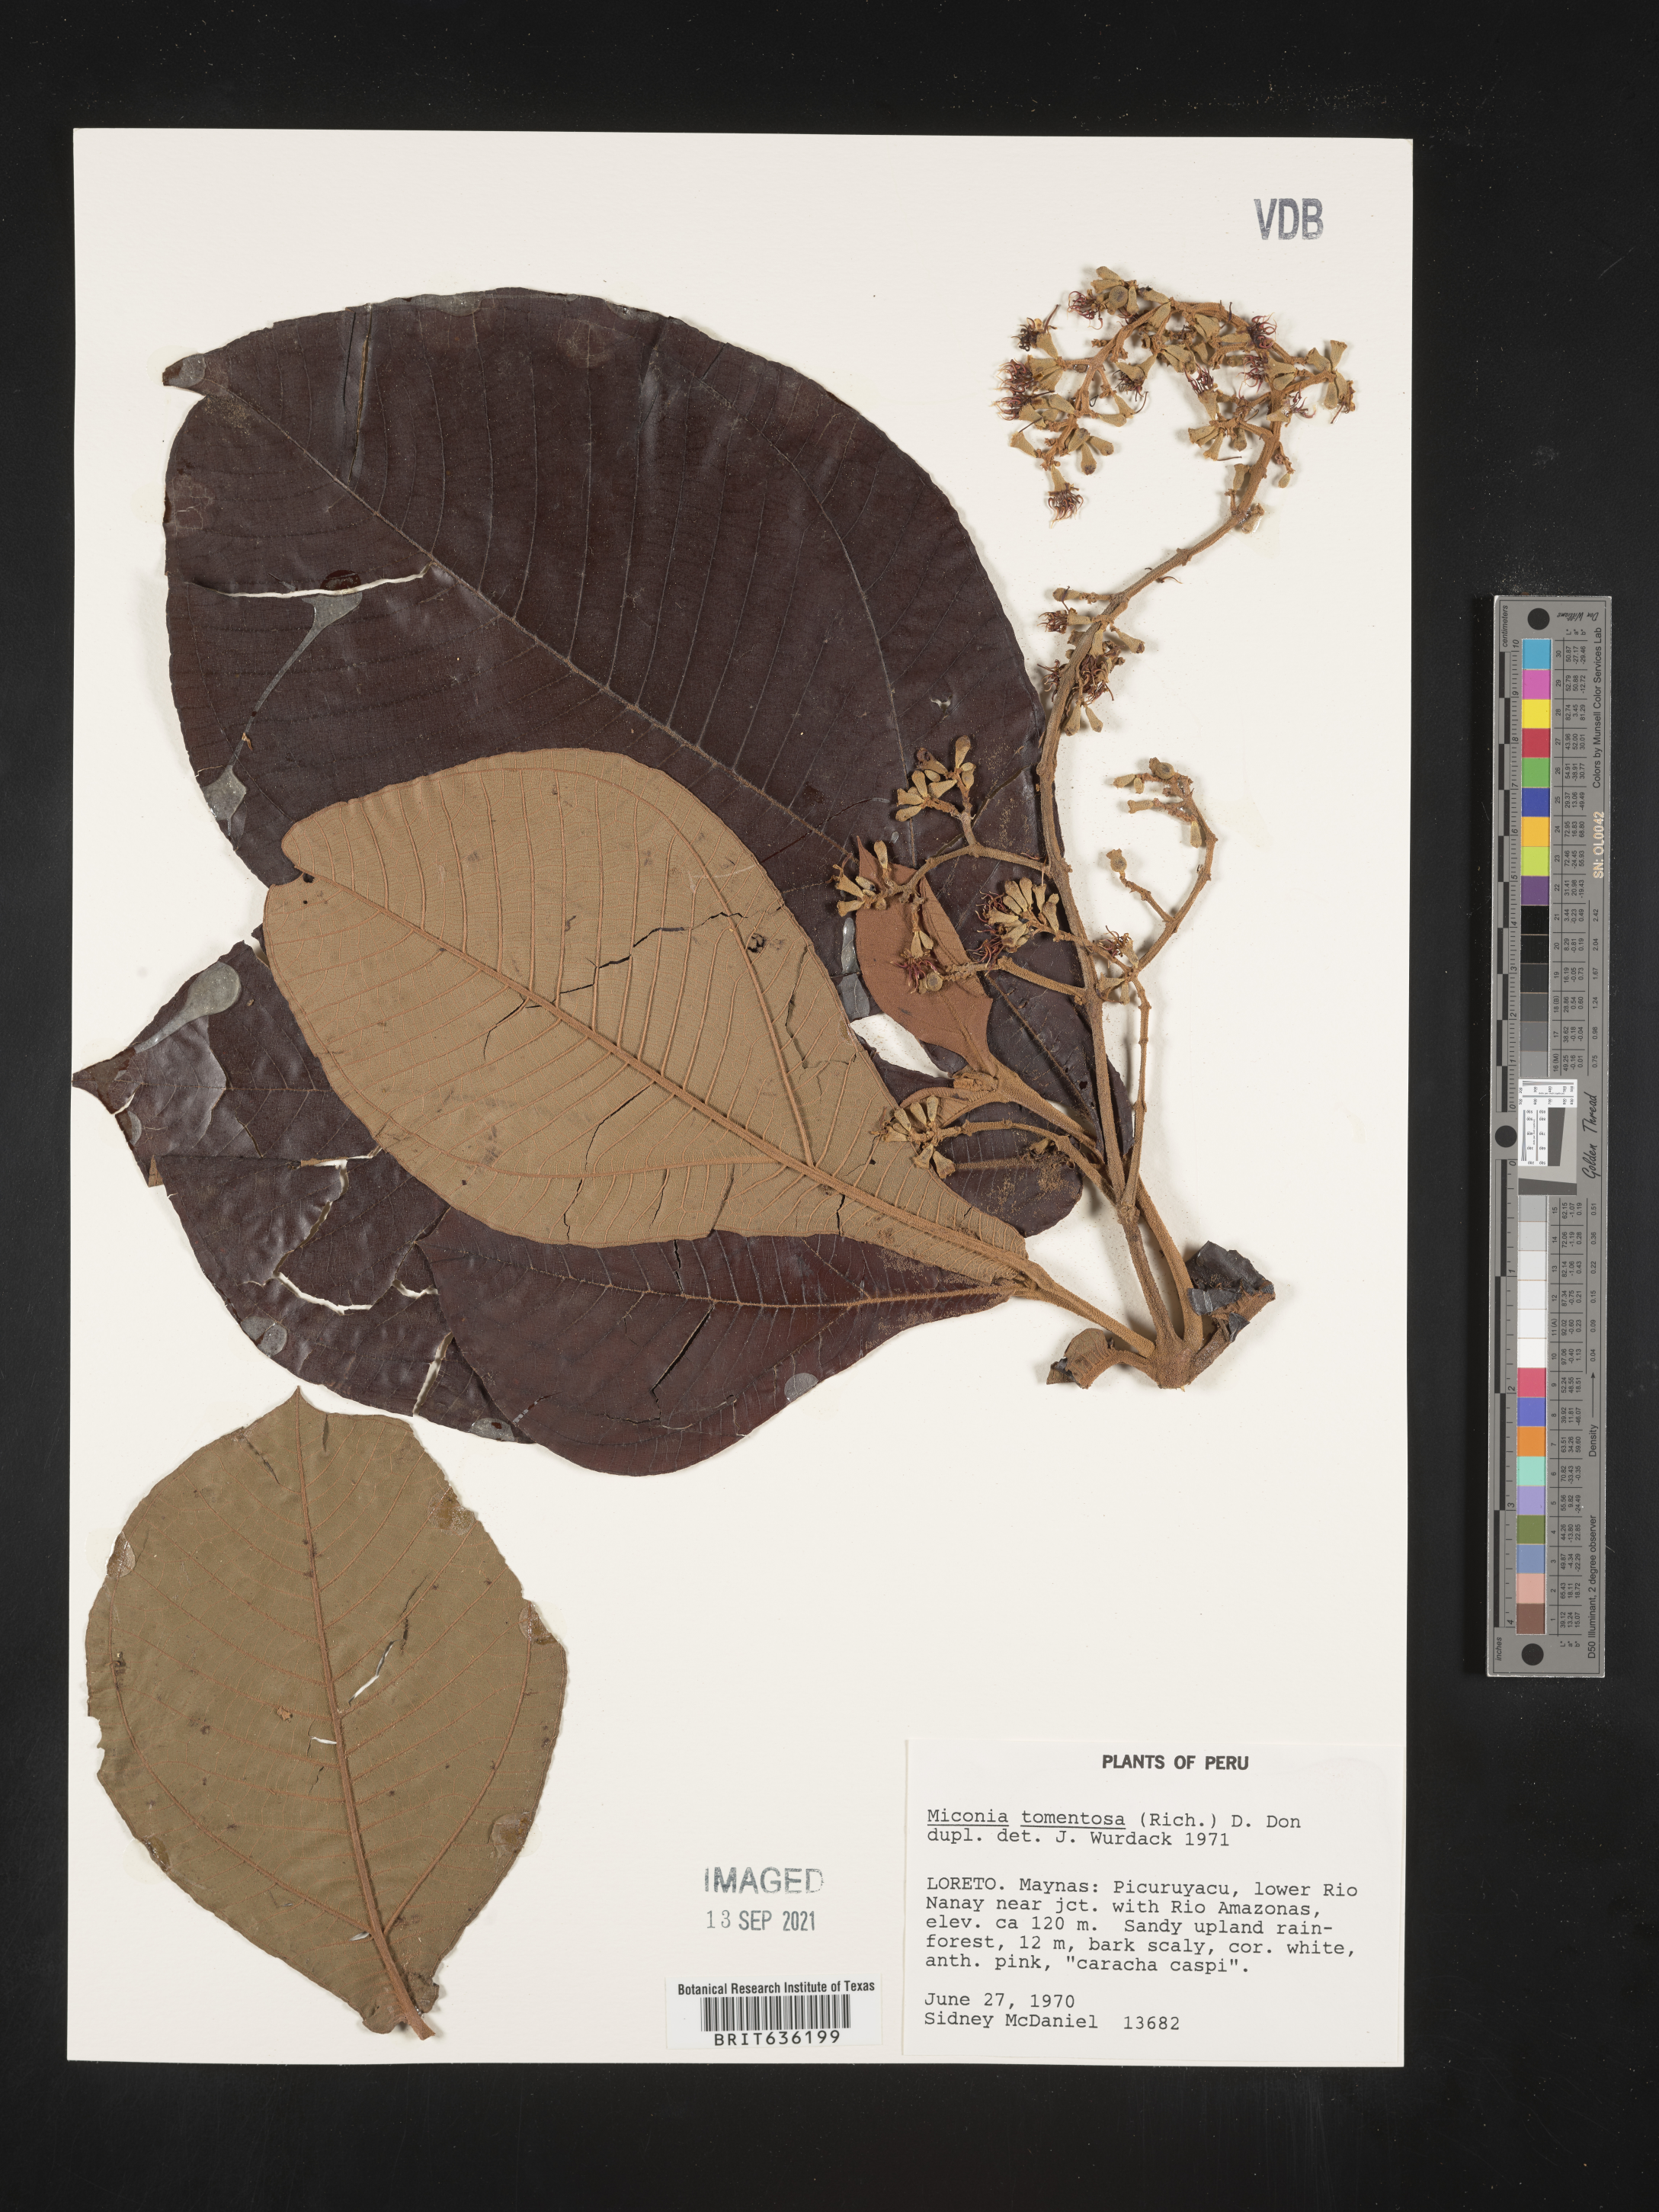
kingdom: Plantae
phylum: Tracheophyta
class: Magnoliopsida
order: Myrtales
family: Melastomataceae
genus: Miconia
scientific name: Miconia
